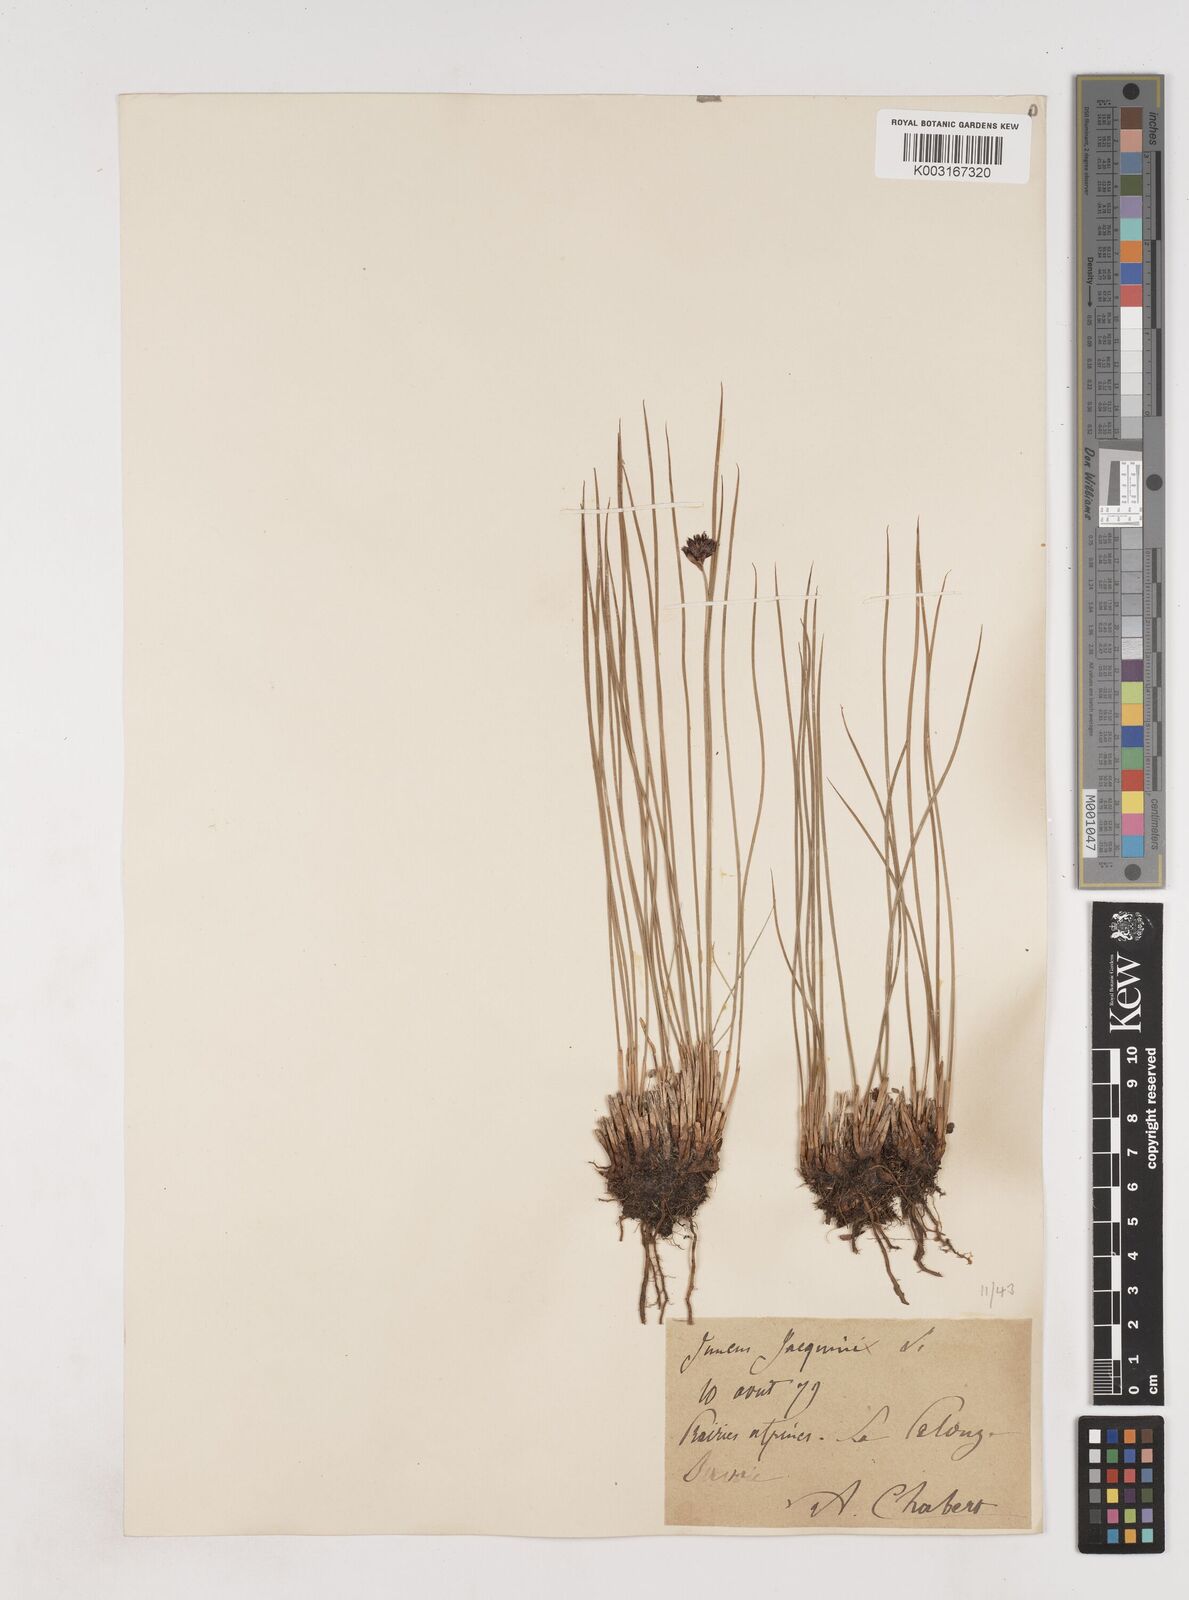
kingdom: Plantae
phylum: Tracheophyta
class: Liliopsida
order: Poales
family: Juncaceae
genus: Juncus
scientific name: Juncus jacquinii
